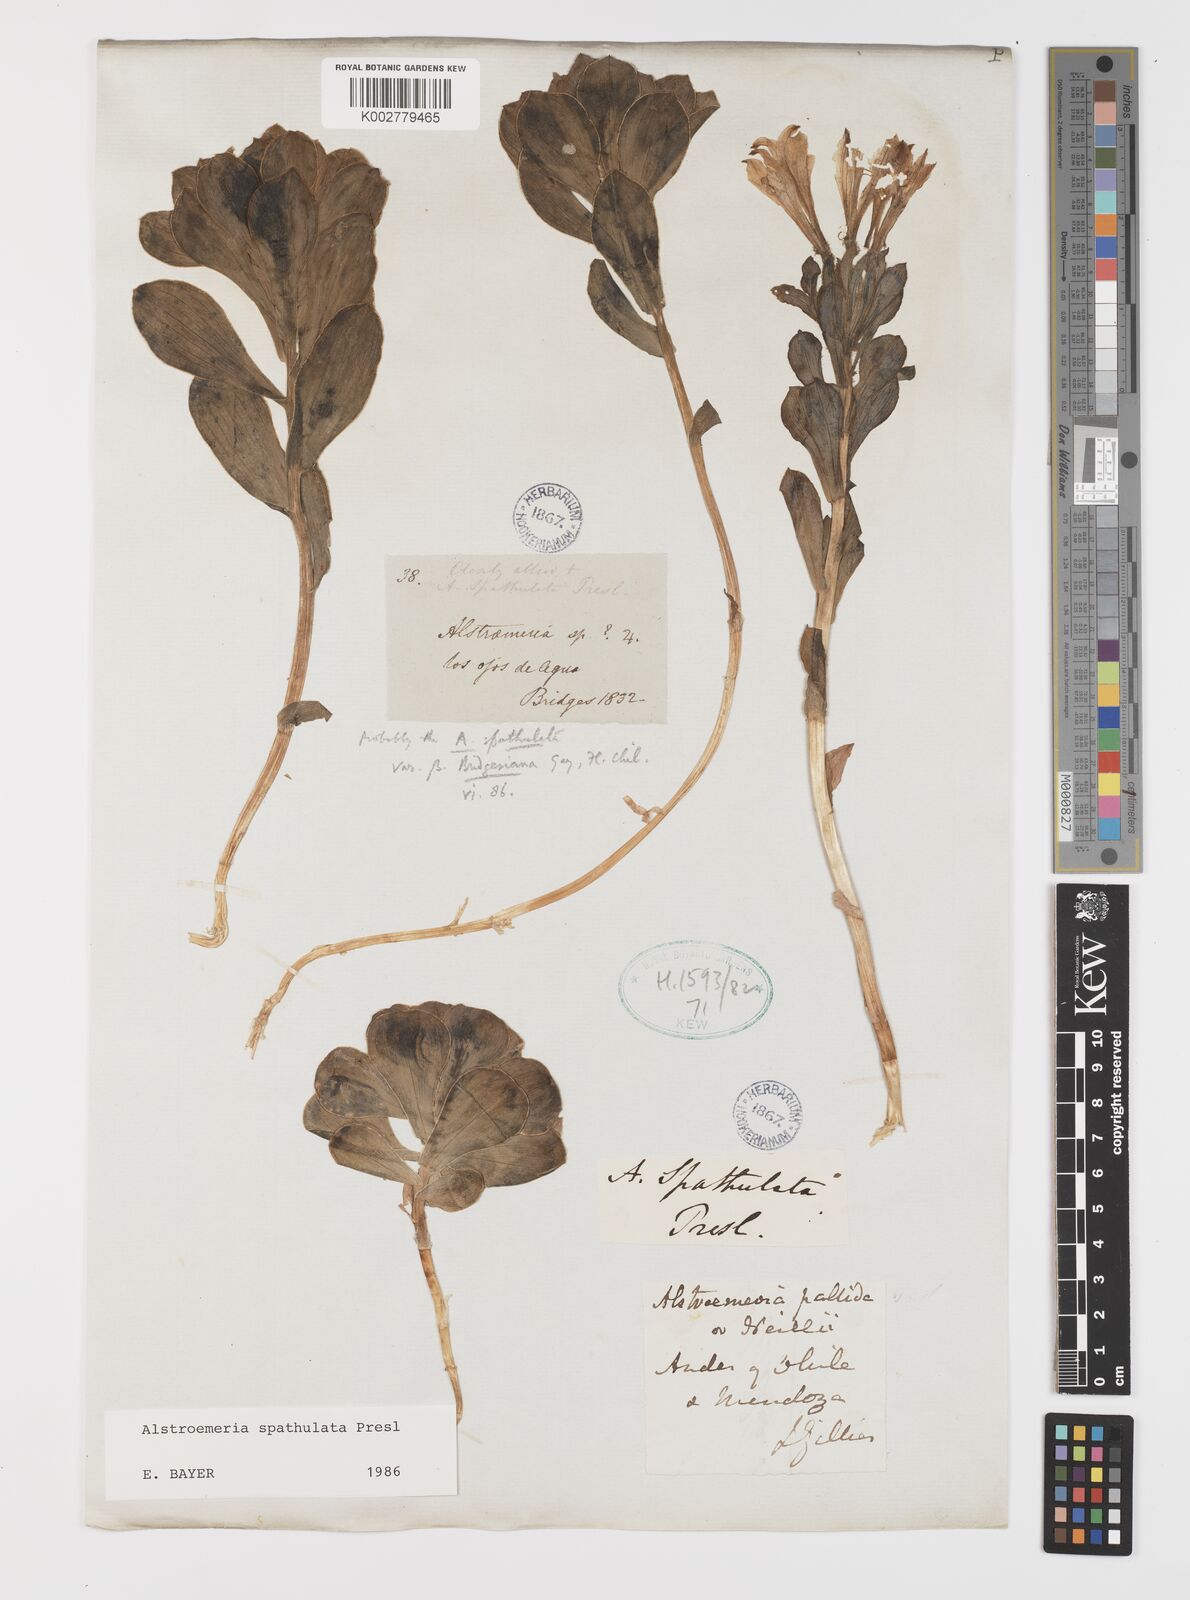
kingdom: Plantae
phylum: Tracheophyta
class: Liliopsida
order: Liliales
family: Alstroemeriaceae
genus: Alstroemeria
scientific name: Alstroemeria spathulata
